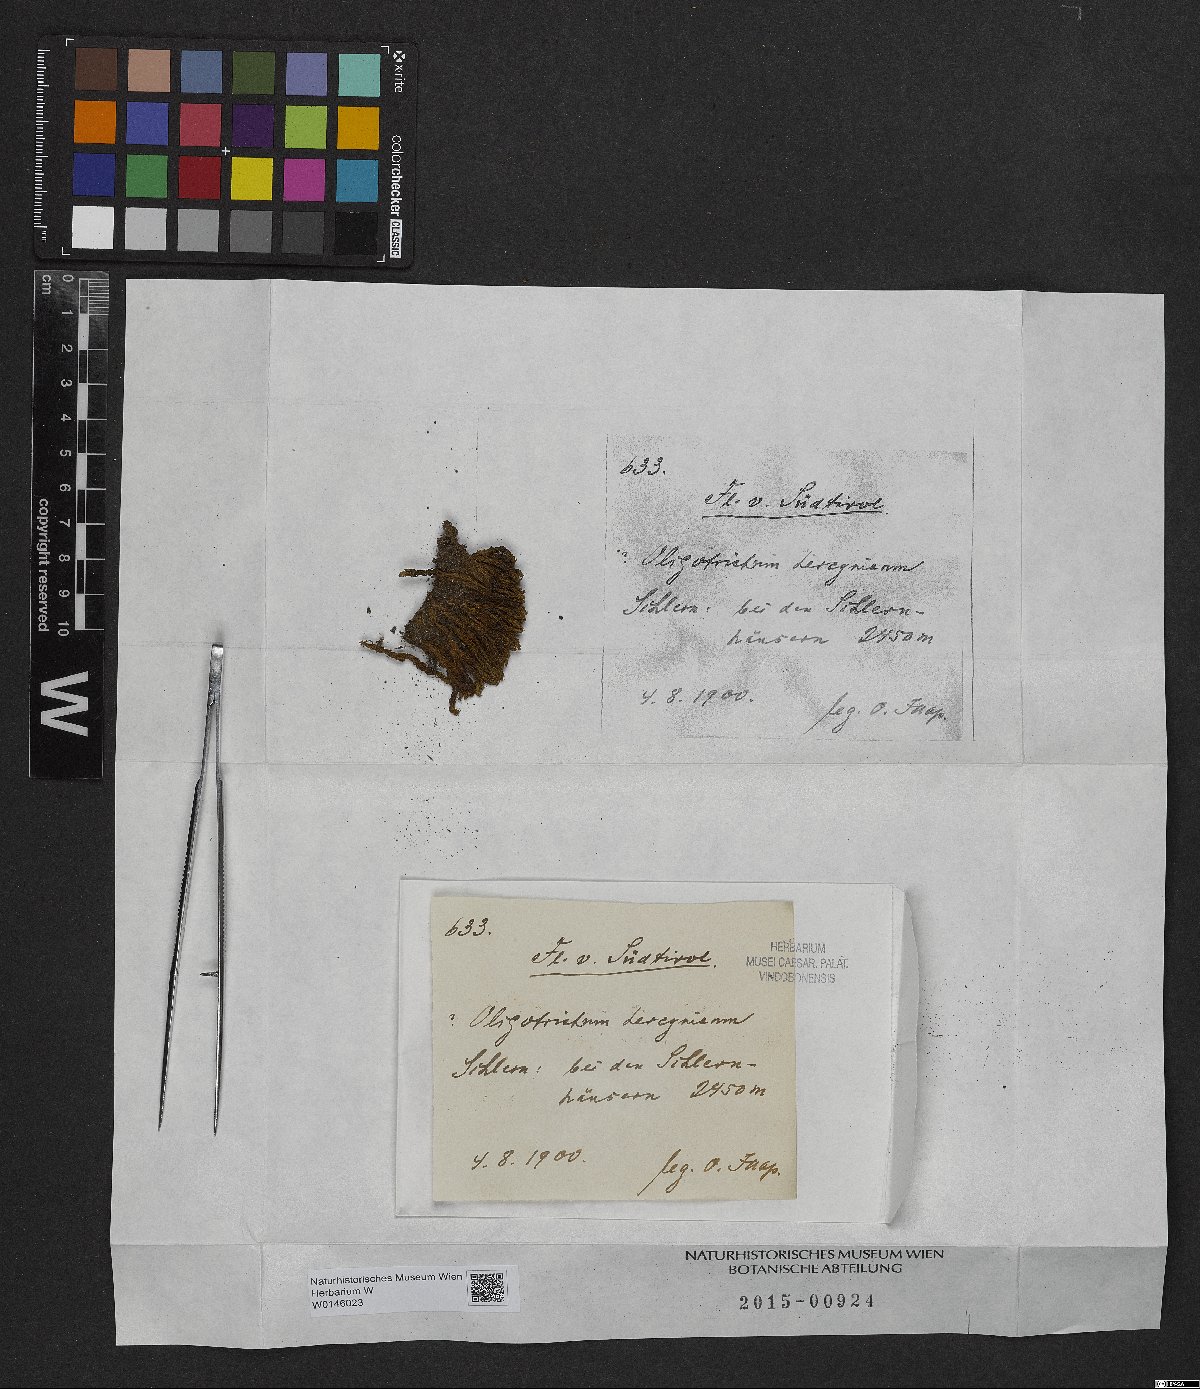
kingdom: Plantae
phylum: Bryophyta
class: Polytrichopsida
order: Polytrichales
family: Polytrichaceae
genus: Oligotrichum
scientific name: Oligotrichum hercynicum
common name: Hercynian hair moss
